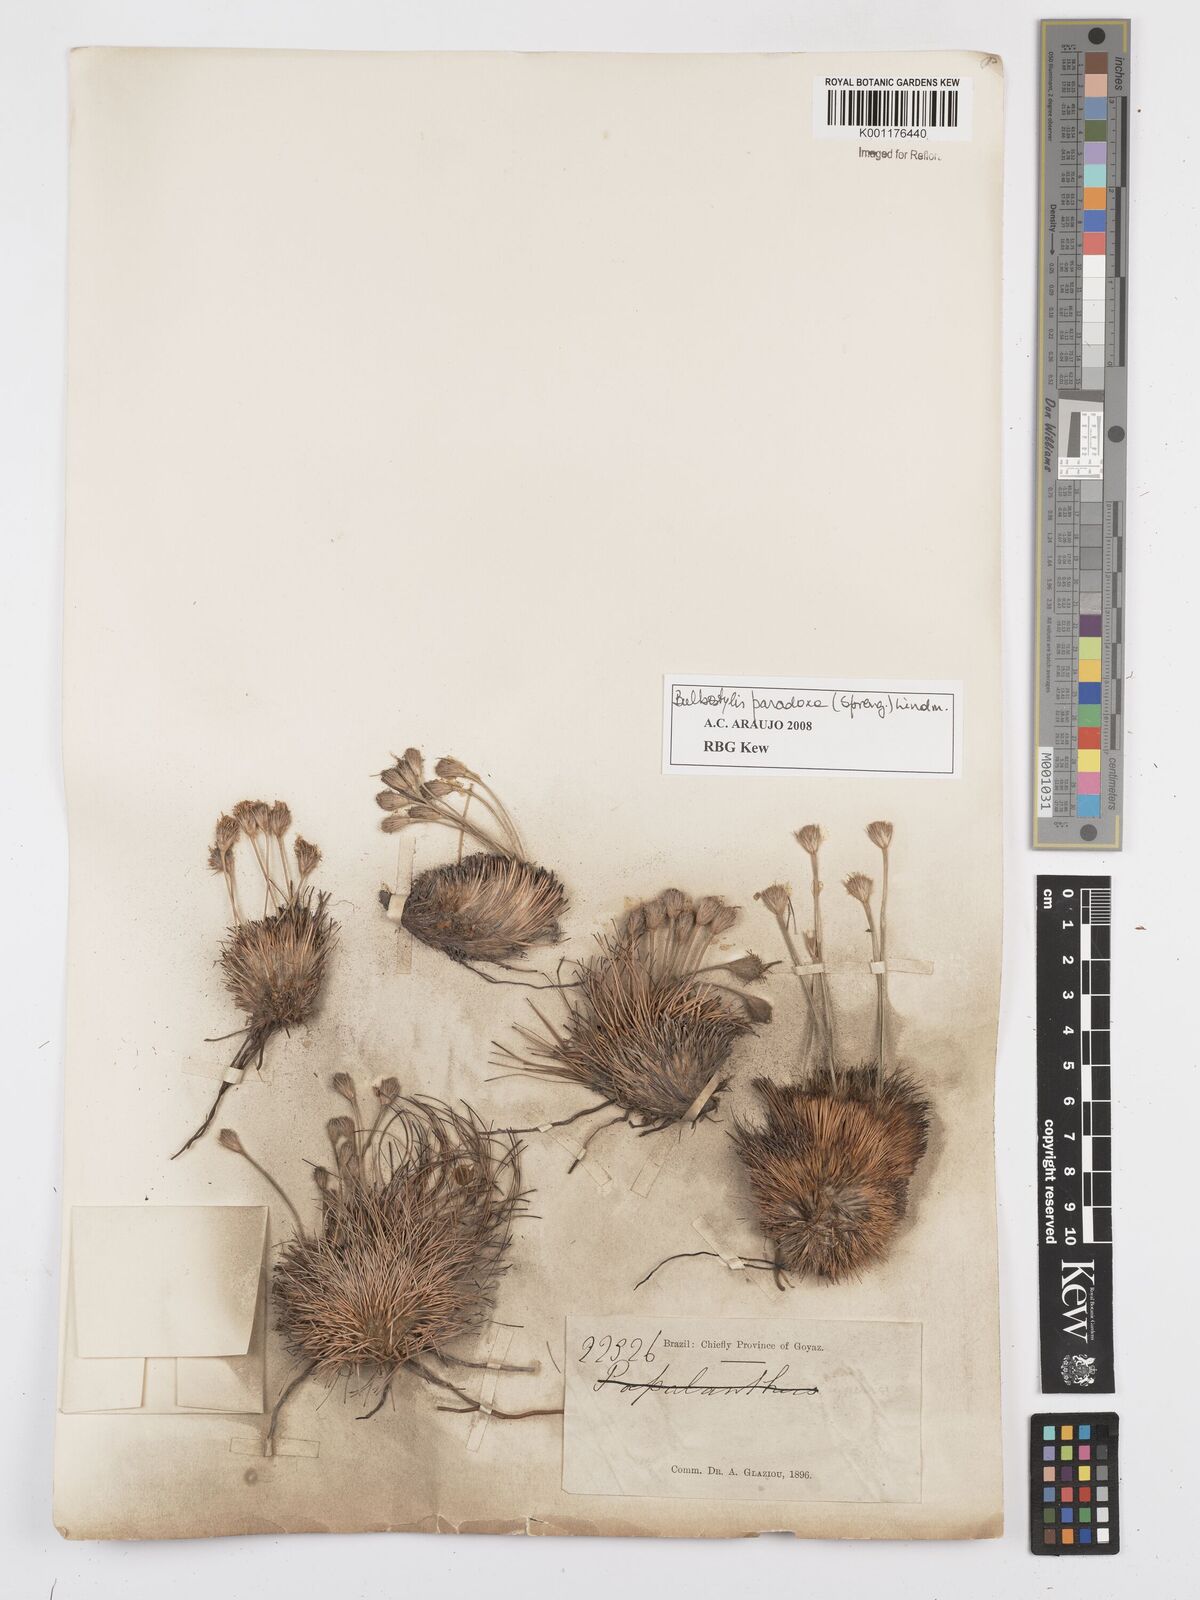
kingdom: Plantae
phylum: Tracheophyta
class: Liliopsida
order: Poales
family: Cyperaceae
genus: Bulbostylis
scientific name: Bulbostylis paradoxa
